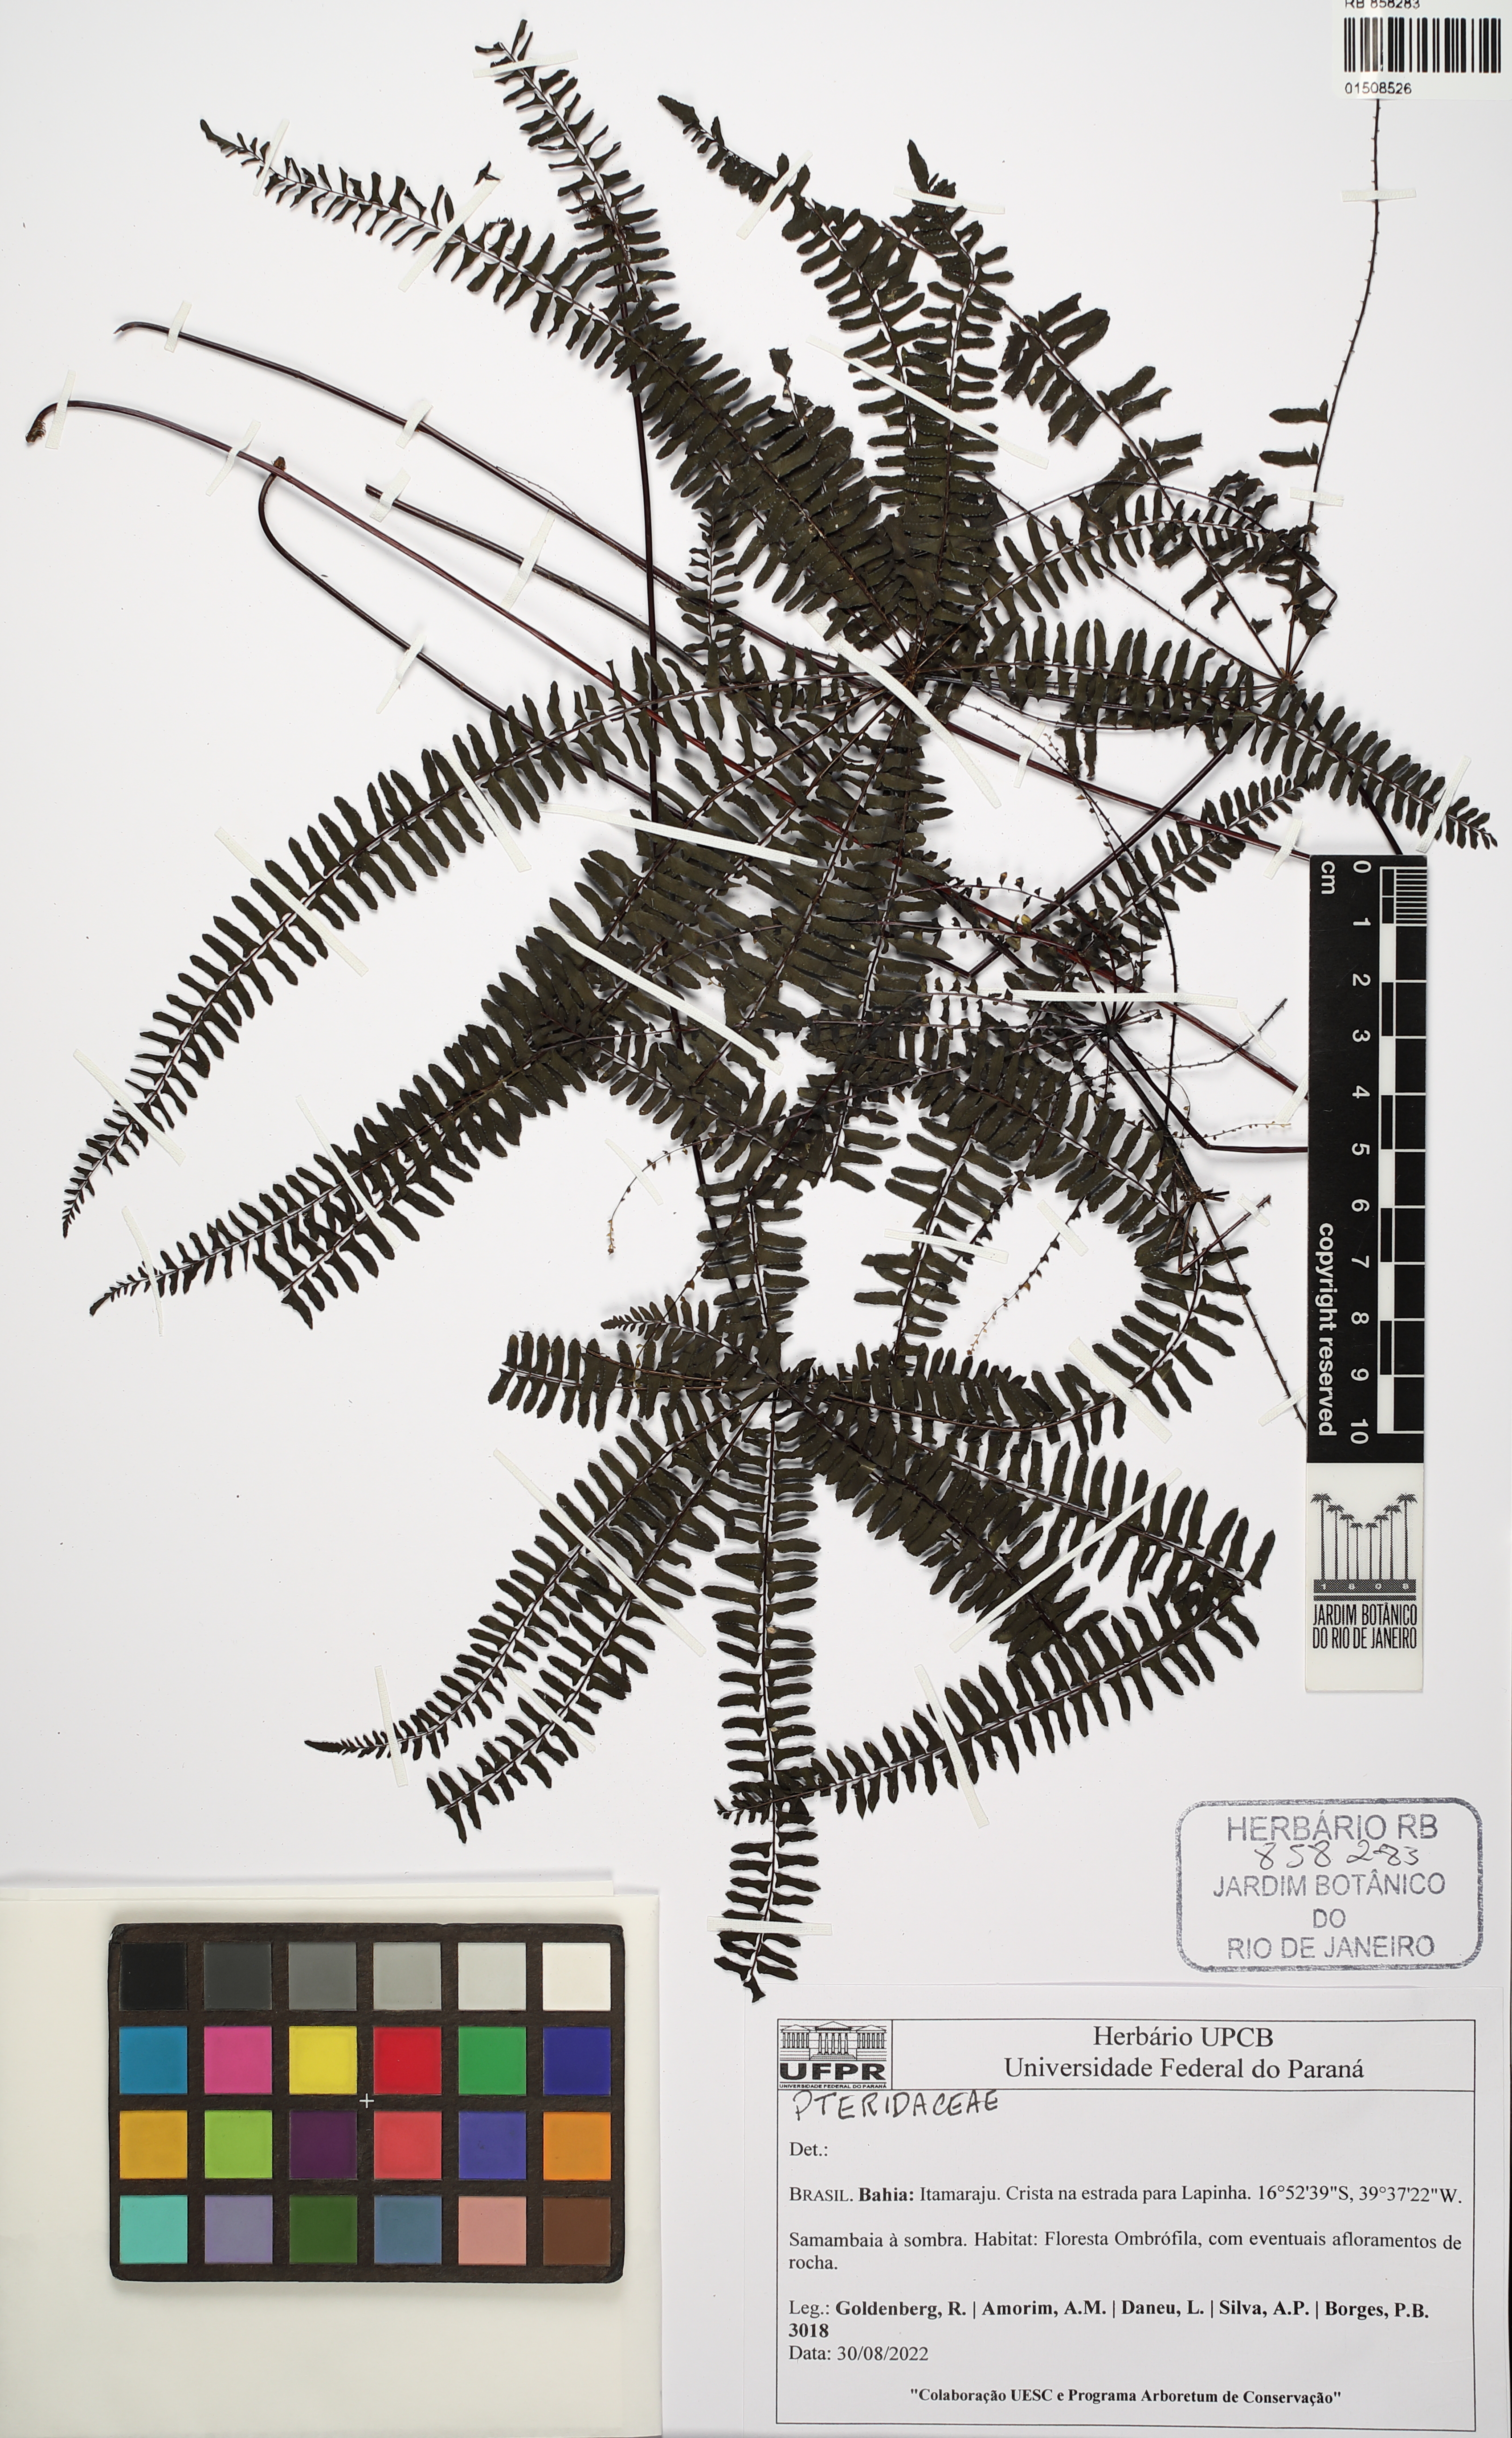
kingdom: Plantae
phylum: Tracheophyta
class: Polypodiopsida
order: Polypodiales
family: Pteridaceae
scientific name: Pteridaceae
